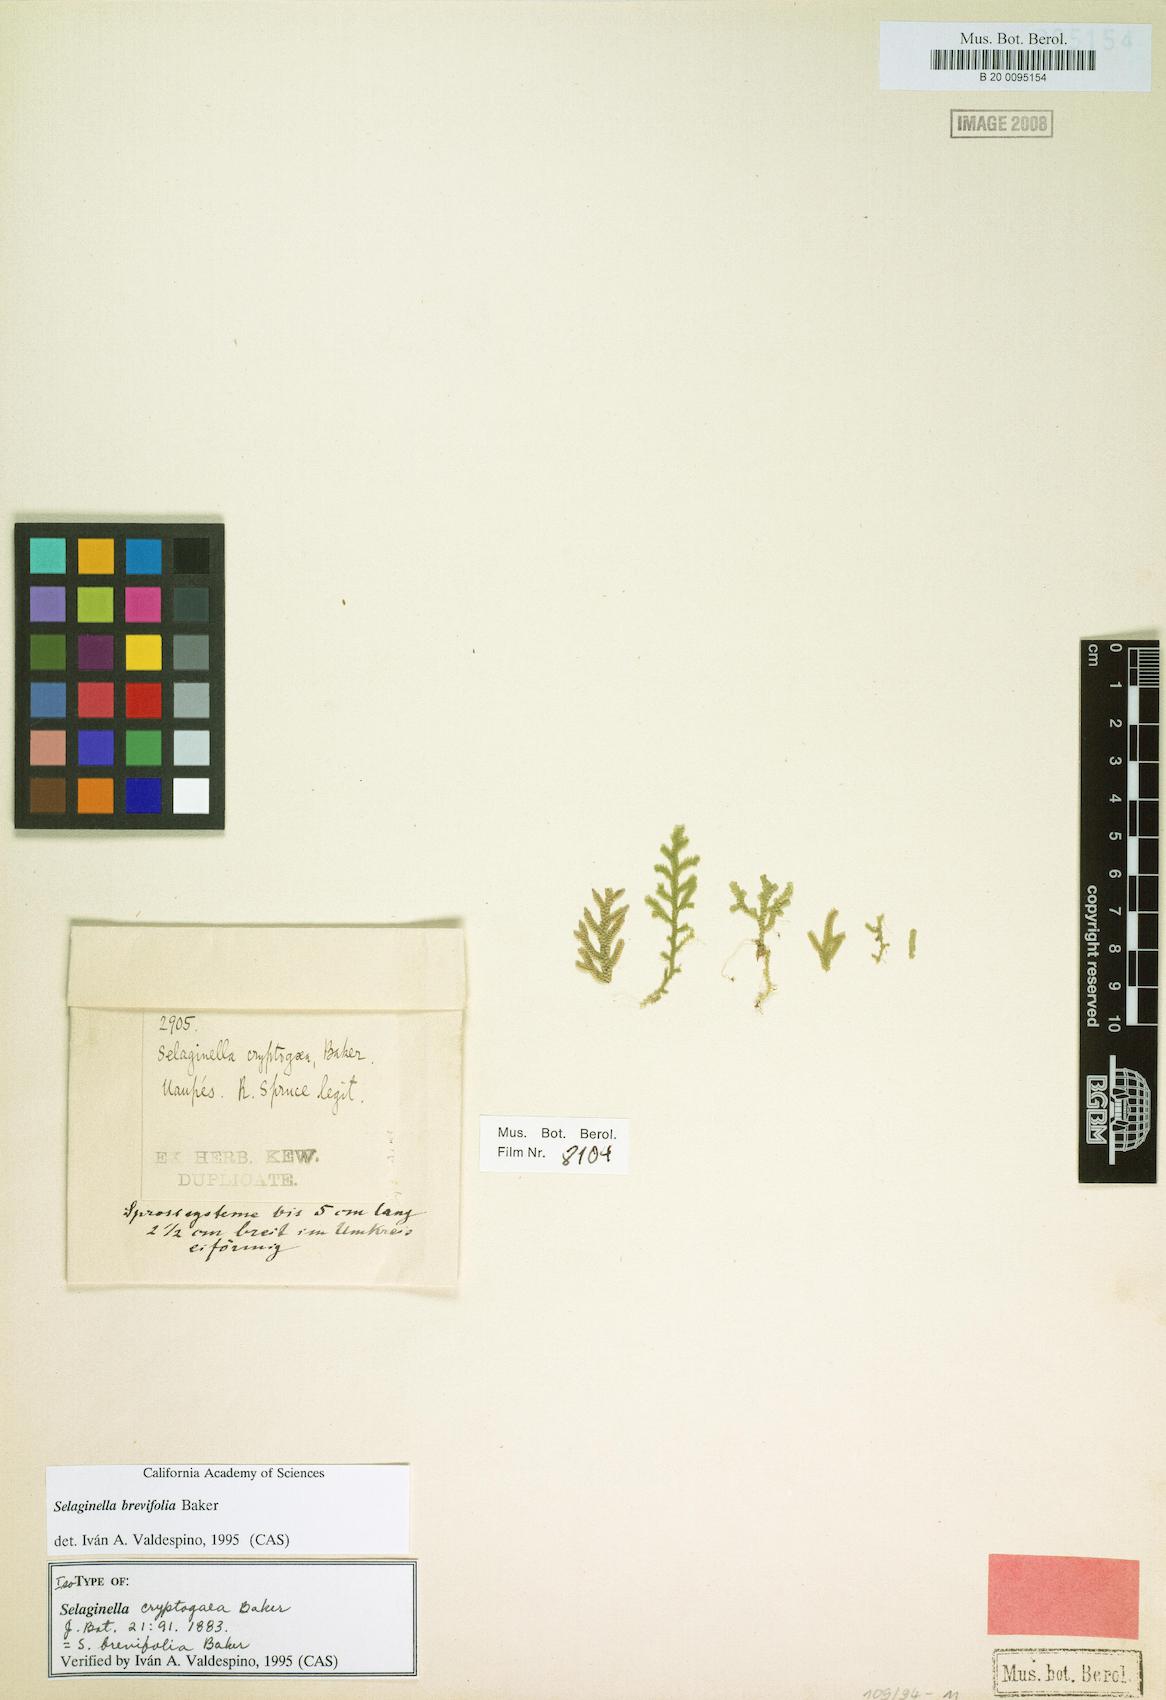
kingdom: Plantae
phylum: Tracheophyta
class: Lycopodiopsida
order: Selaginellales
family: Selaginellaceae
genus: Selaginella
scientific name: Selaginella brevifolia
